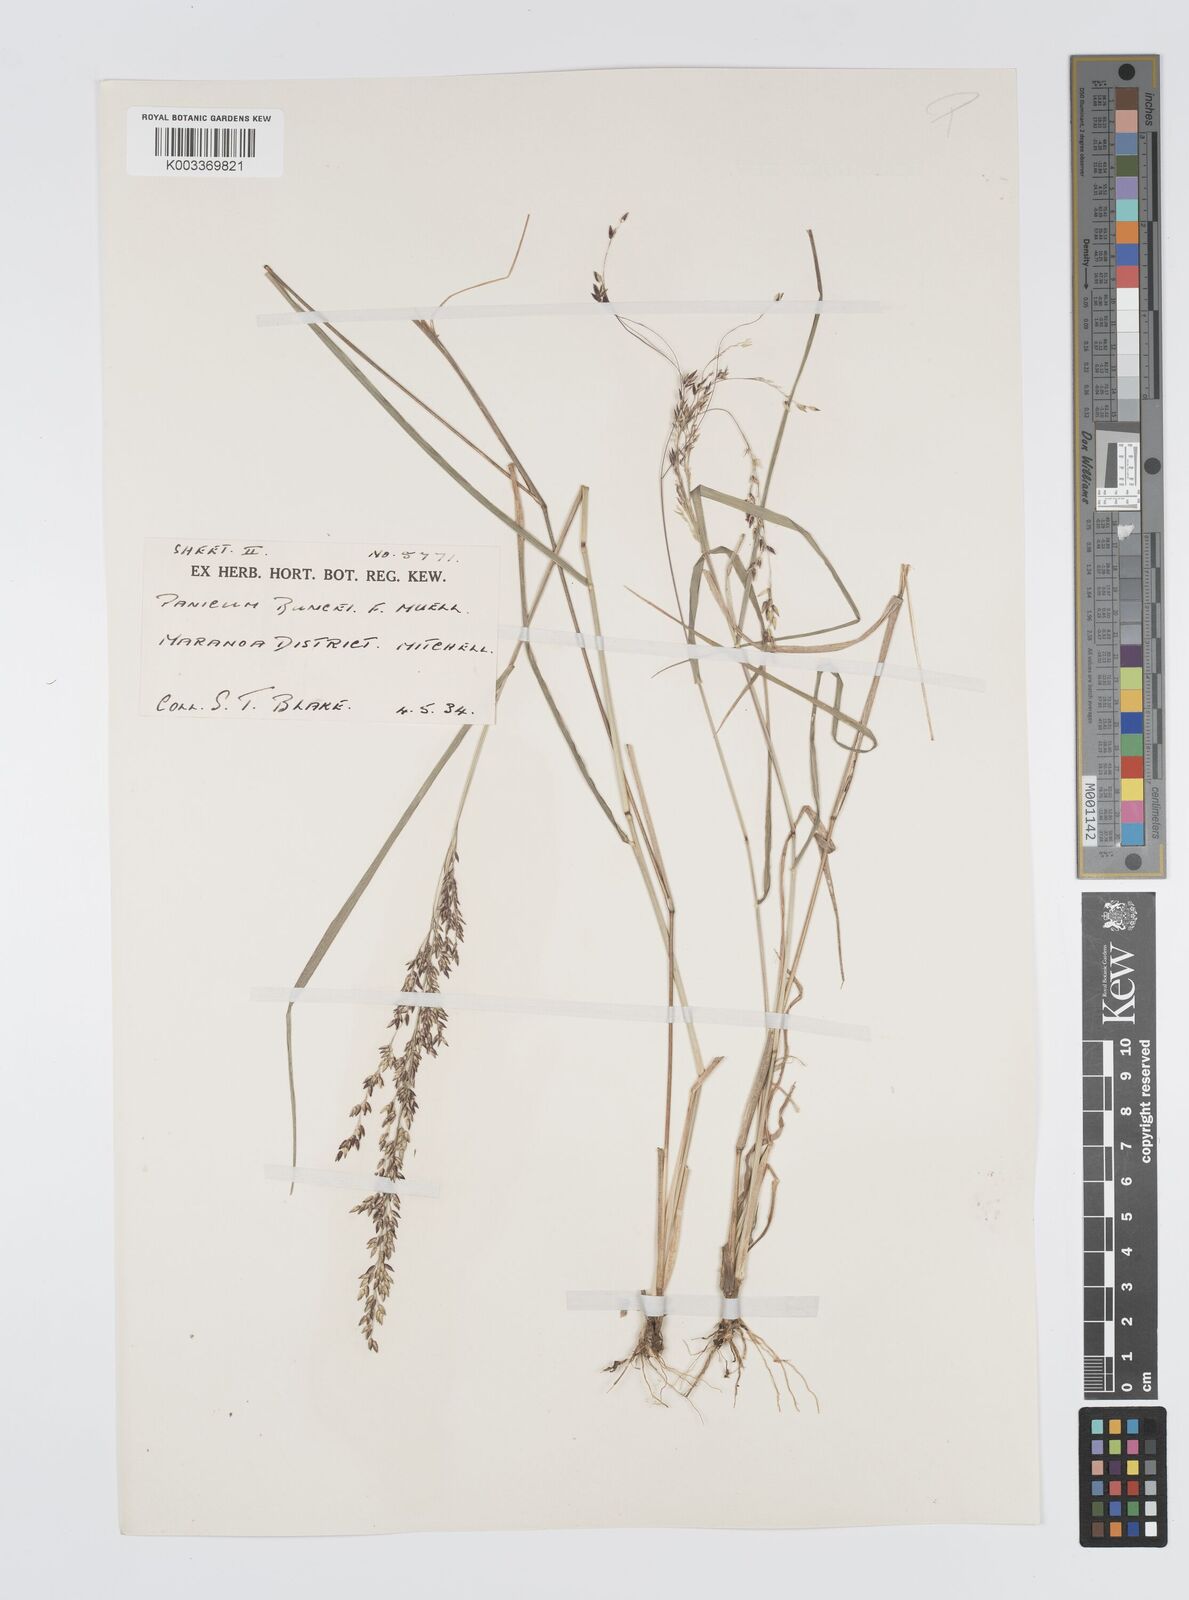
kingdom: Plantae
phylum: Tracheophyta
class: Liliopsida
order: Poales
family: Poaceae
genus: Panicum
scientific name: Panicum buncei
